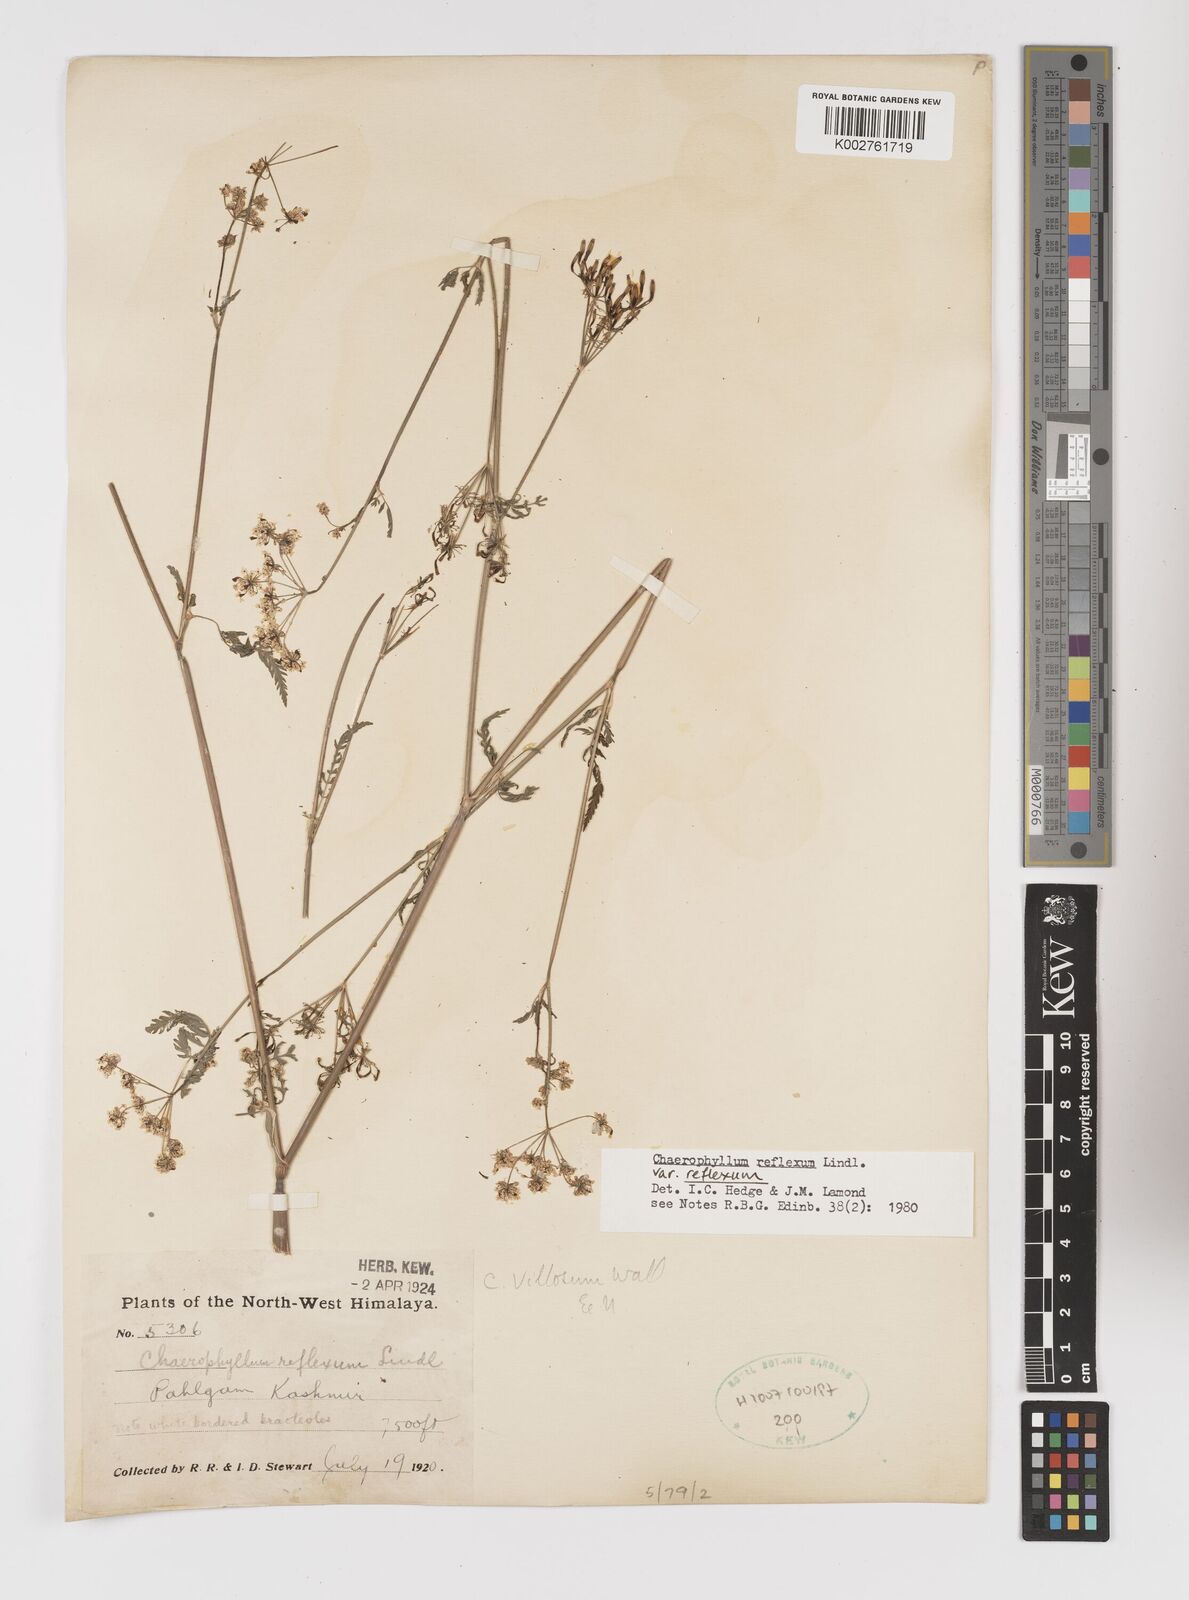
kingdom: Plantae
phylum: Tracheophyta
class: Magnoliopsida
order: Apiales
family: Apiaceae
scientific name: Apiaceae
